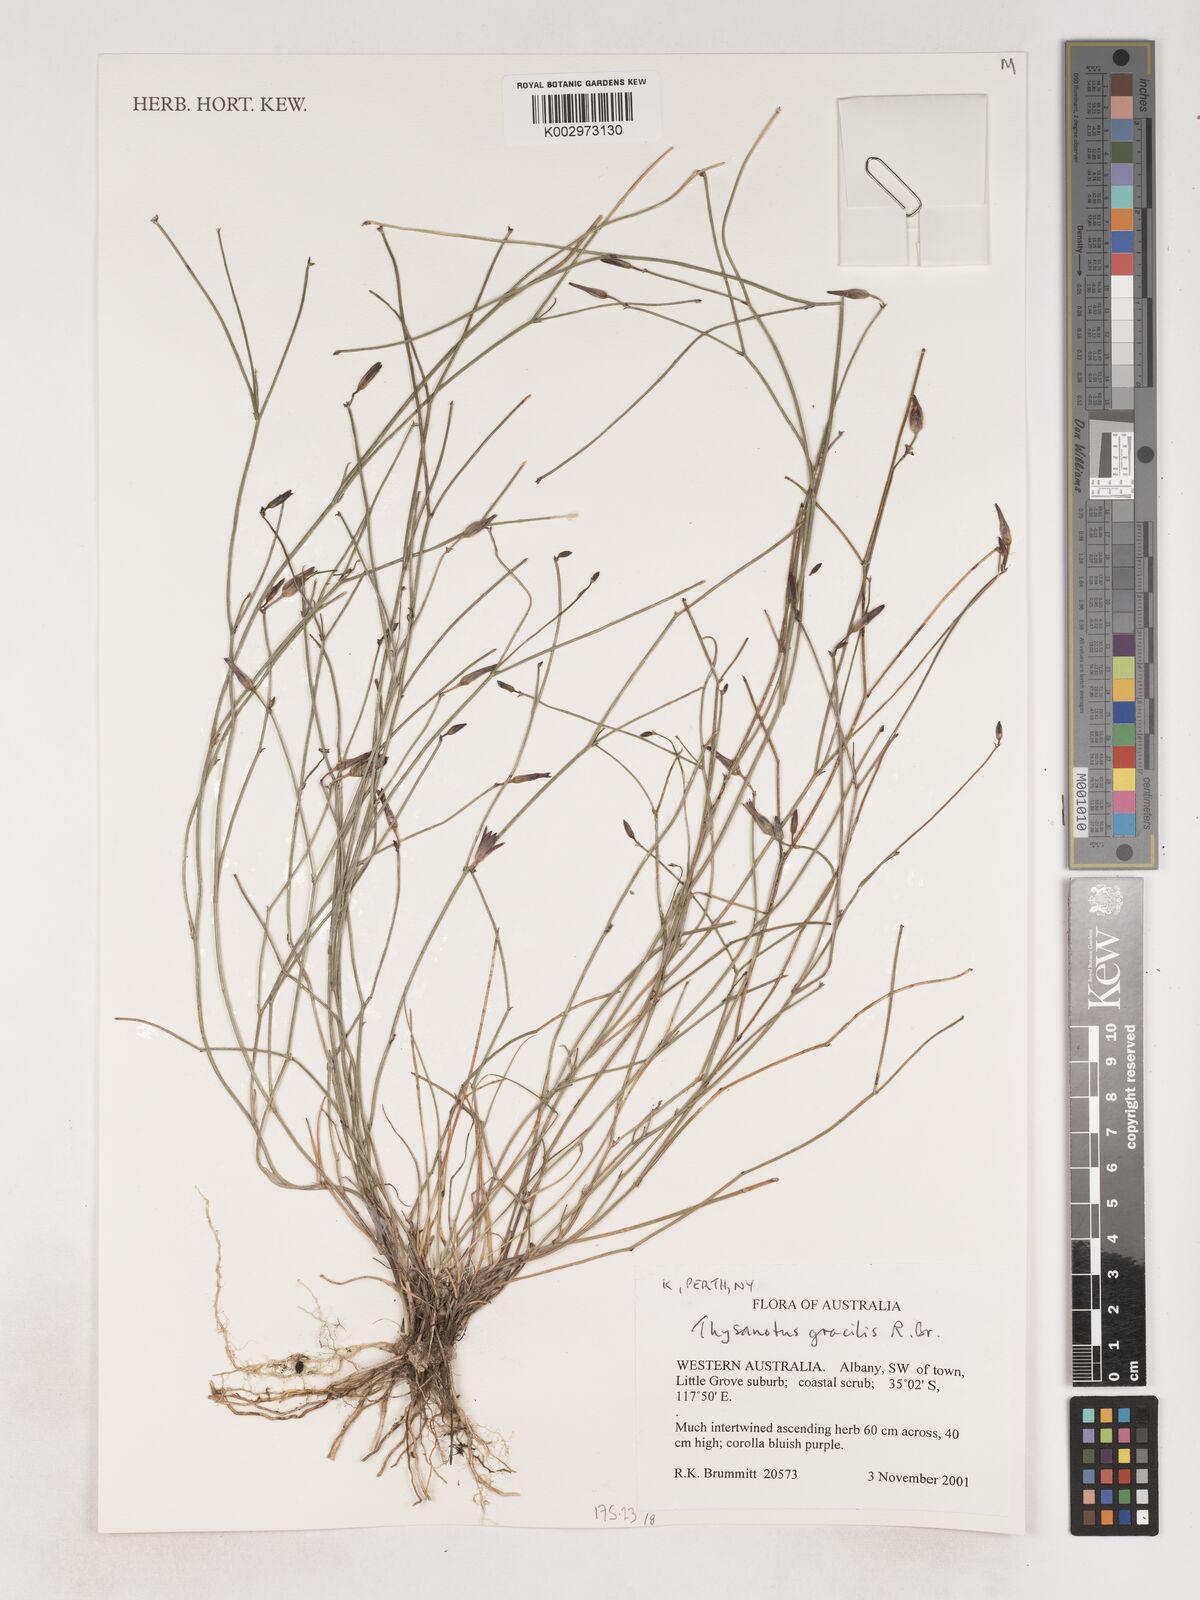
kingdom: Plantae
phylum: Tracheophyta
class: Liliopsida
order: Asparagales
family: Asparagaceae
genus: Thysanotus
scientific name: Thysanotus gracilis
